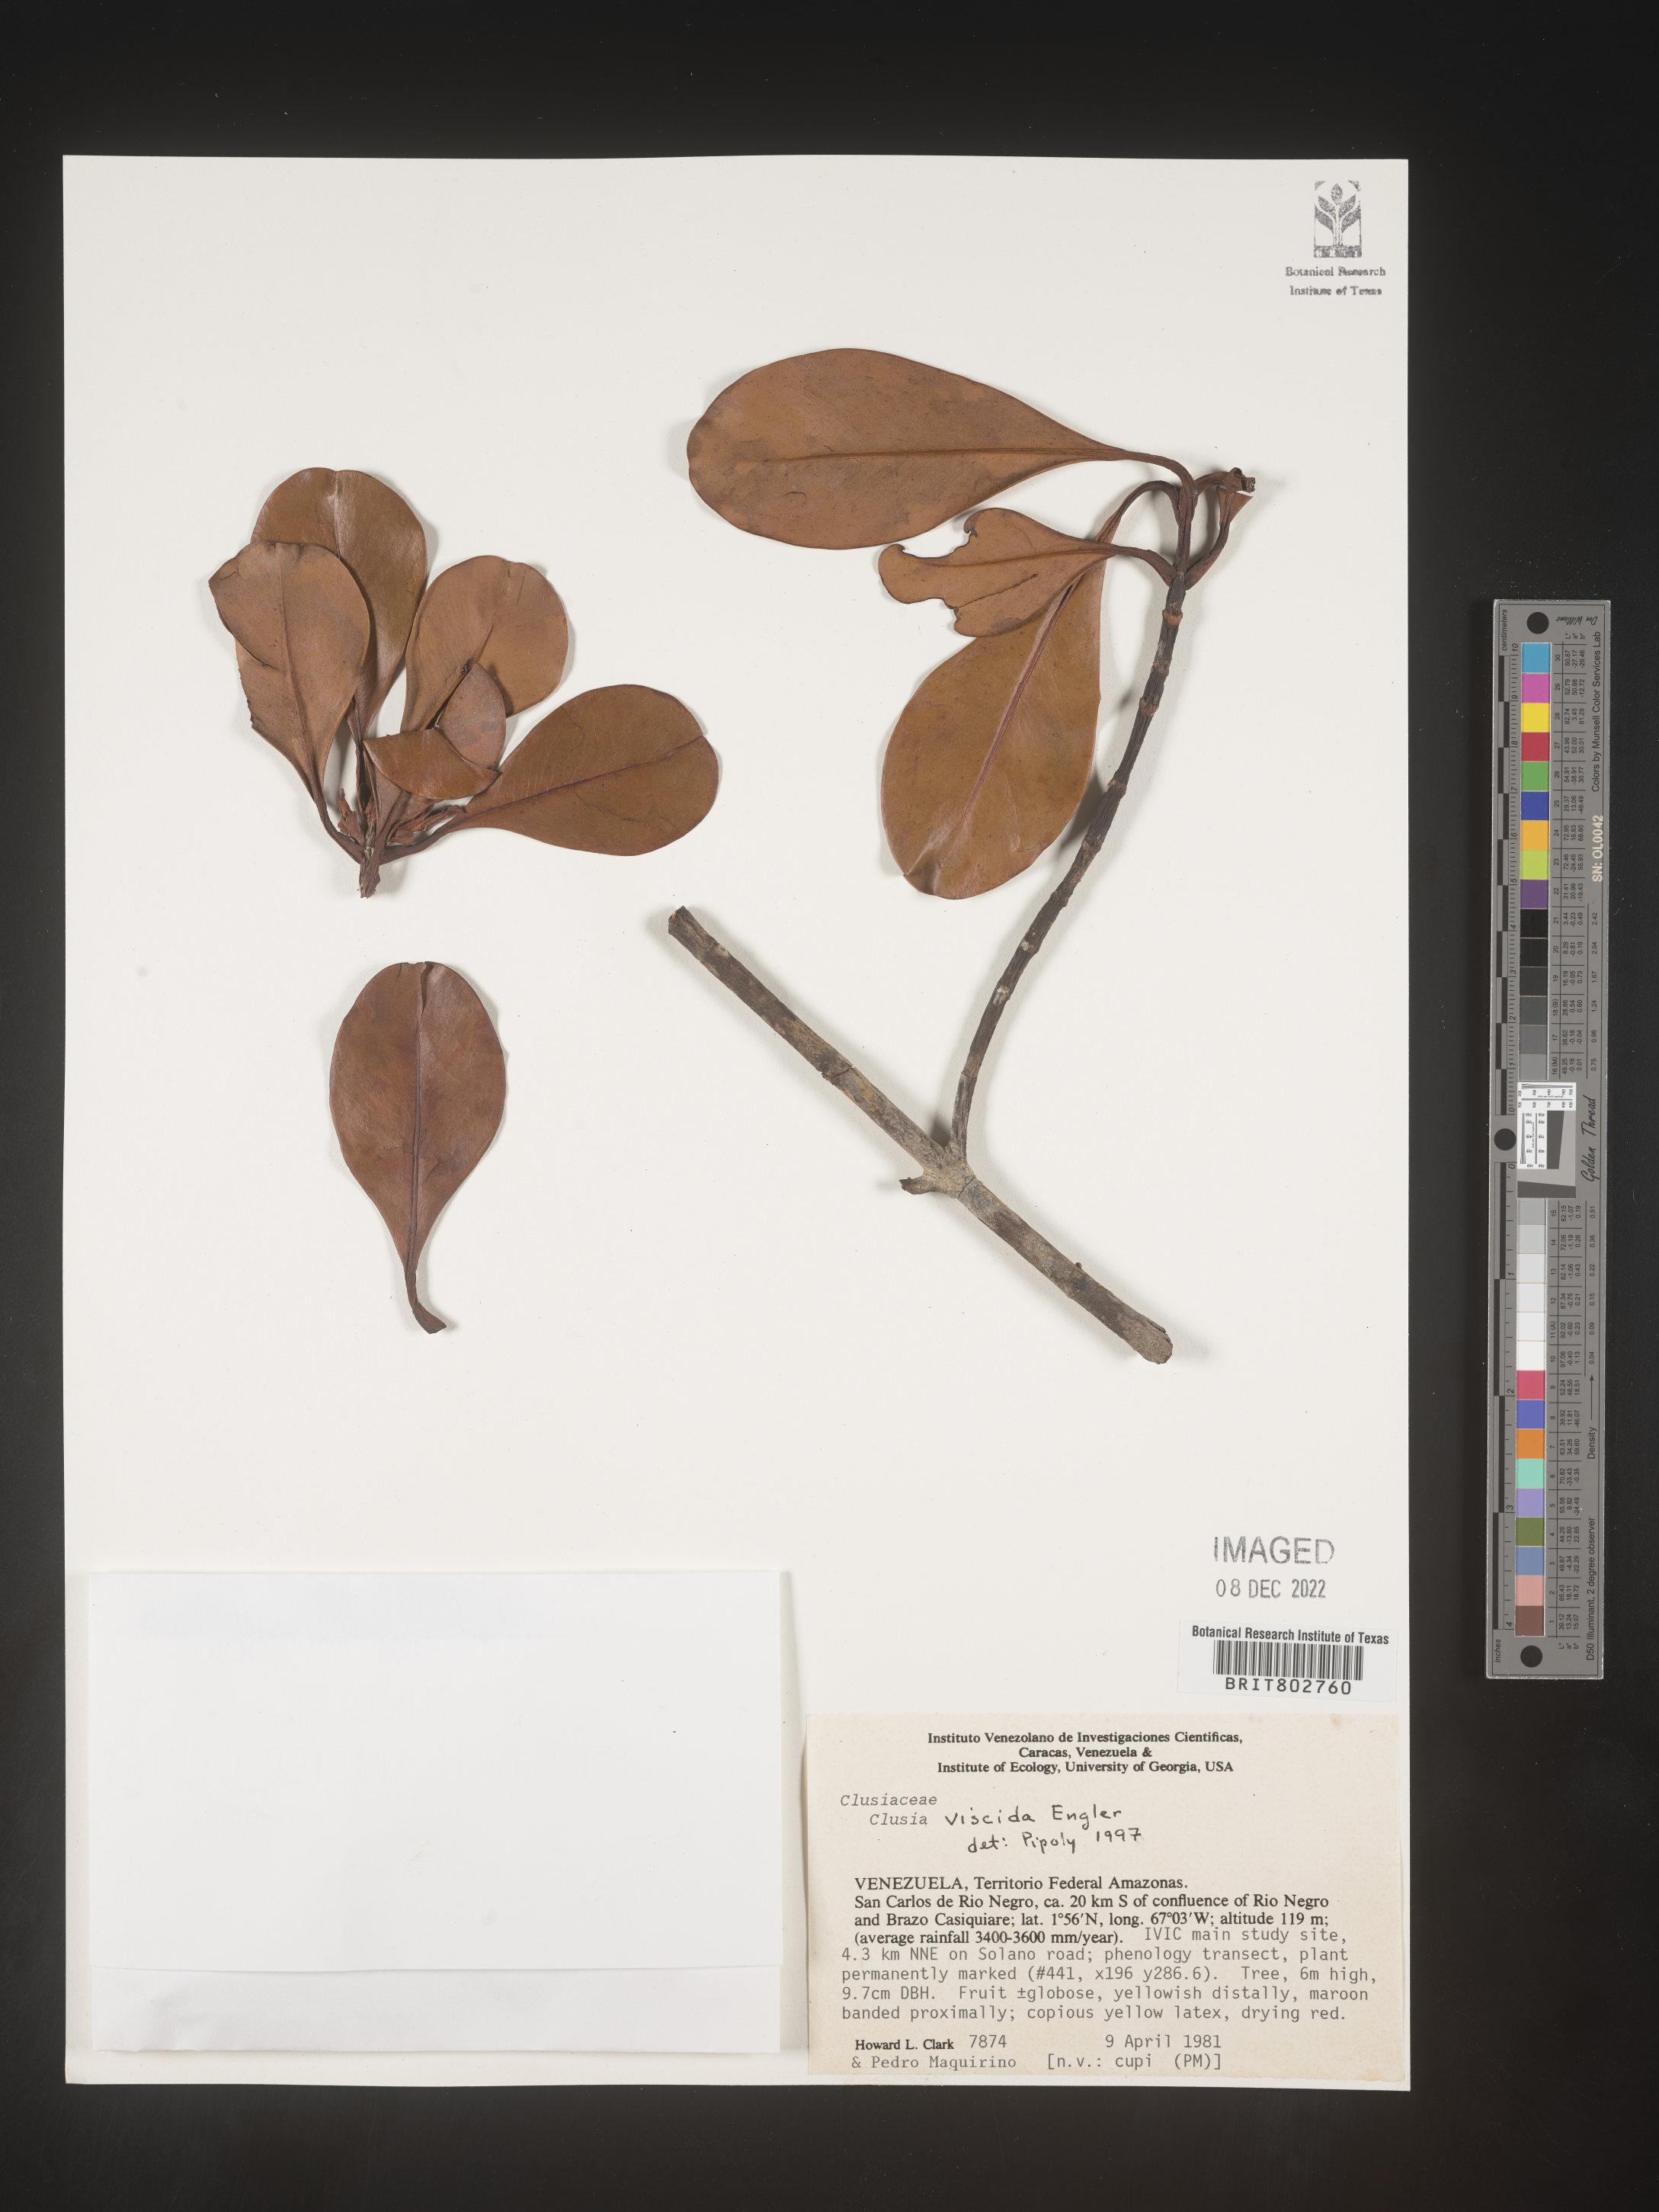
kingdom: Plantae
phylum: Tracheophyta
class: Magnoliopsida
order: Malpighiales
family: Clusiaceae
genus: Clusia
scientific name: Clusia viscida
